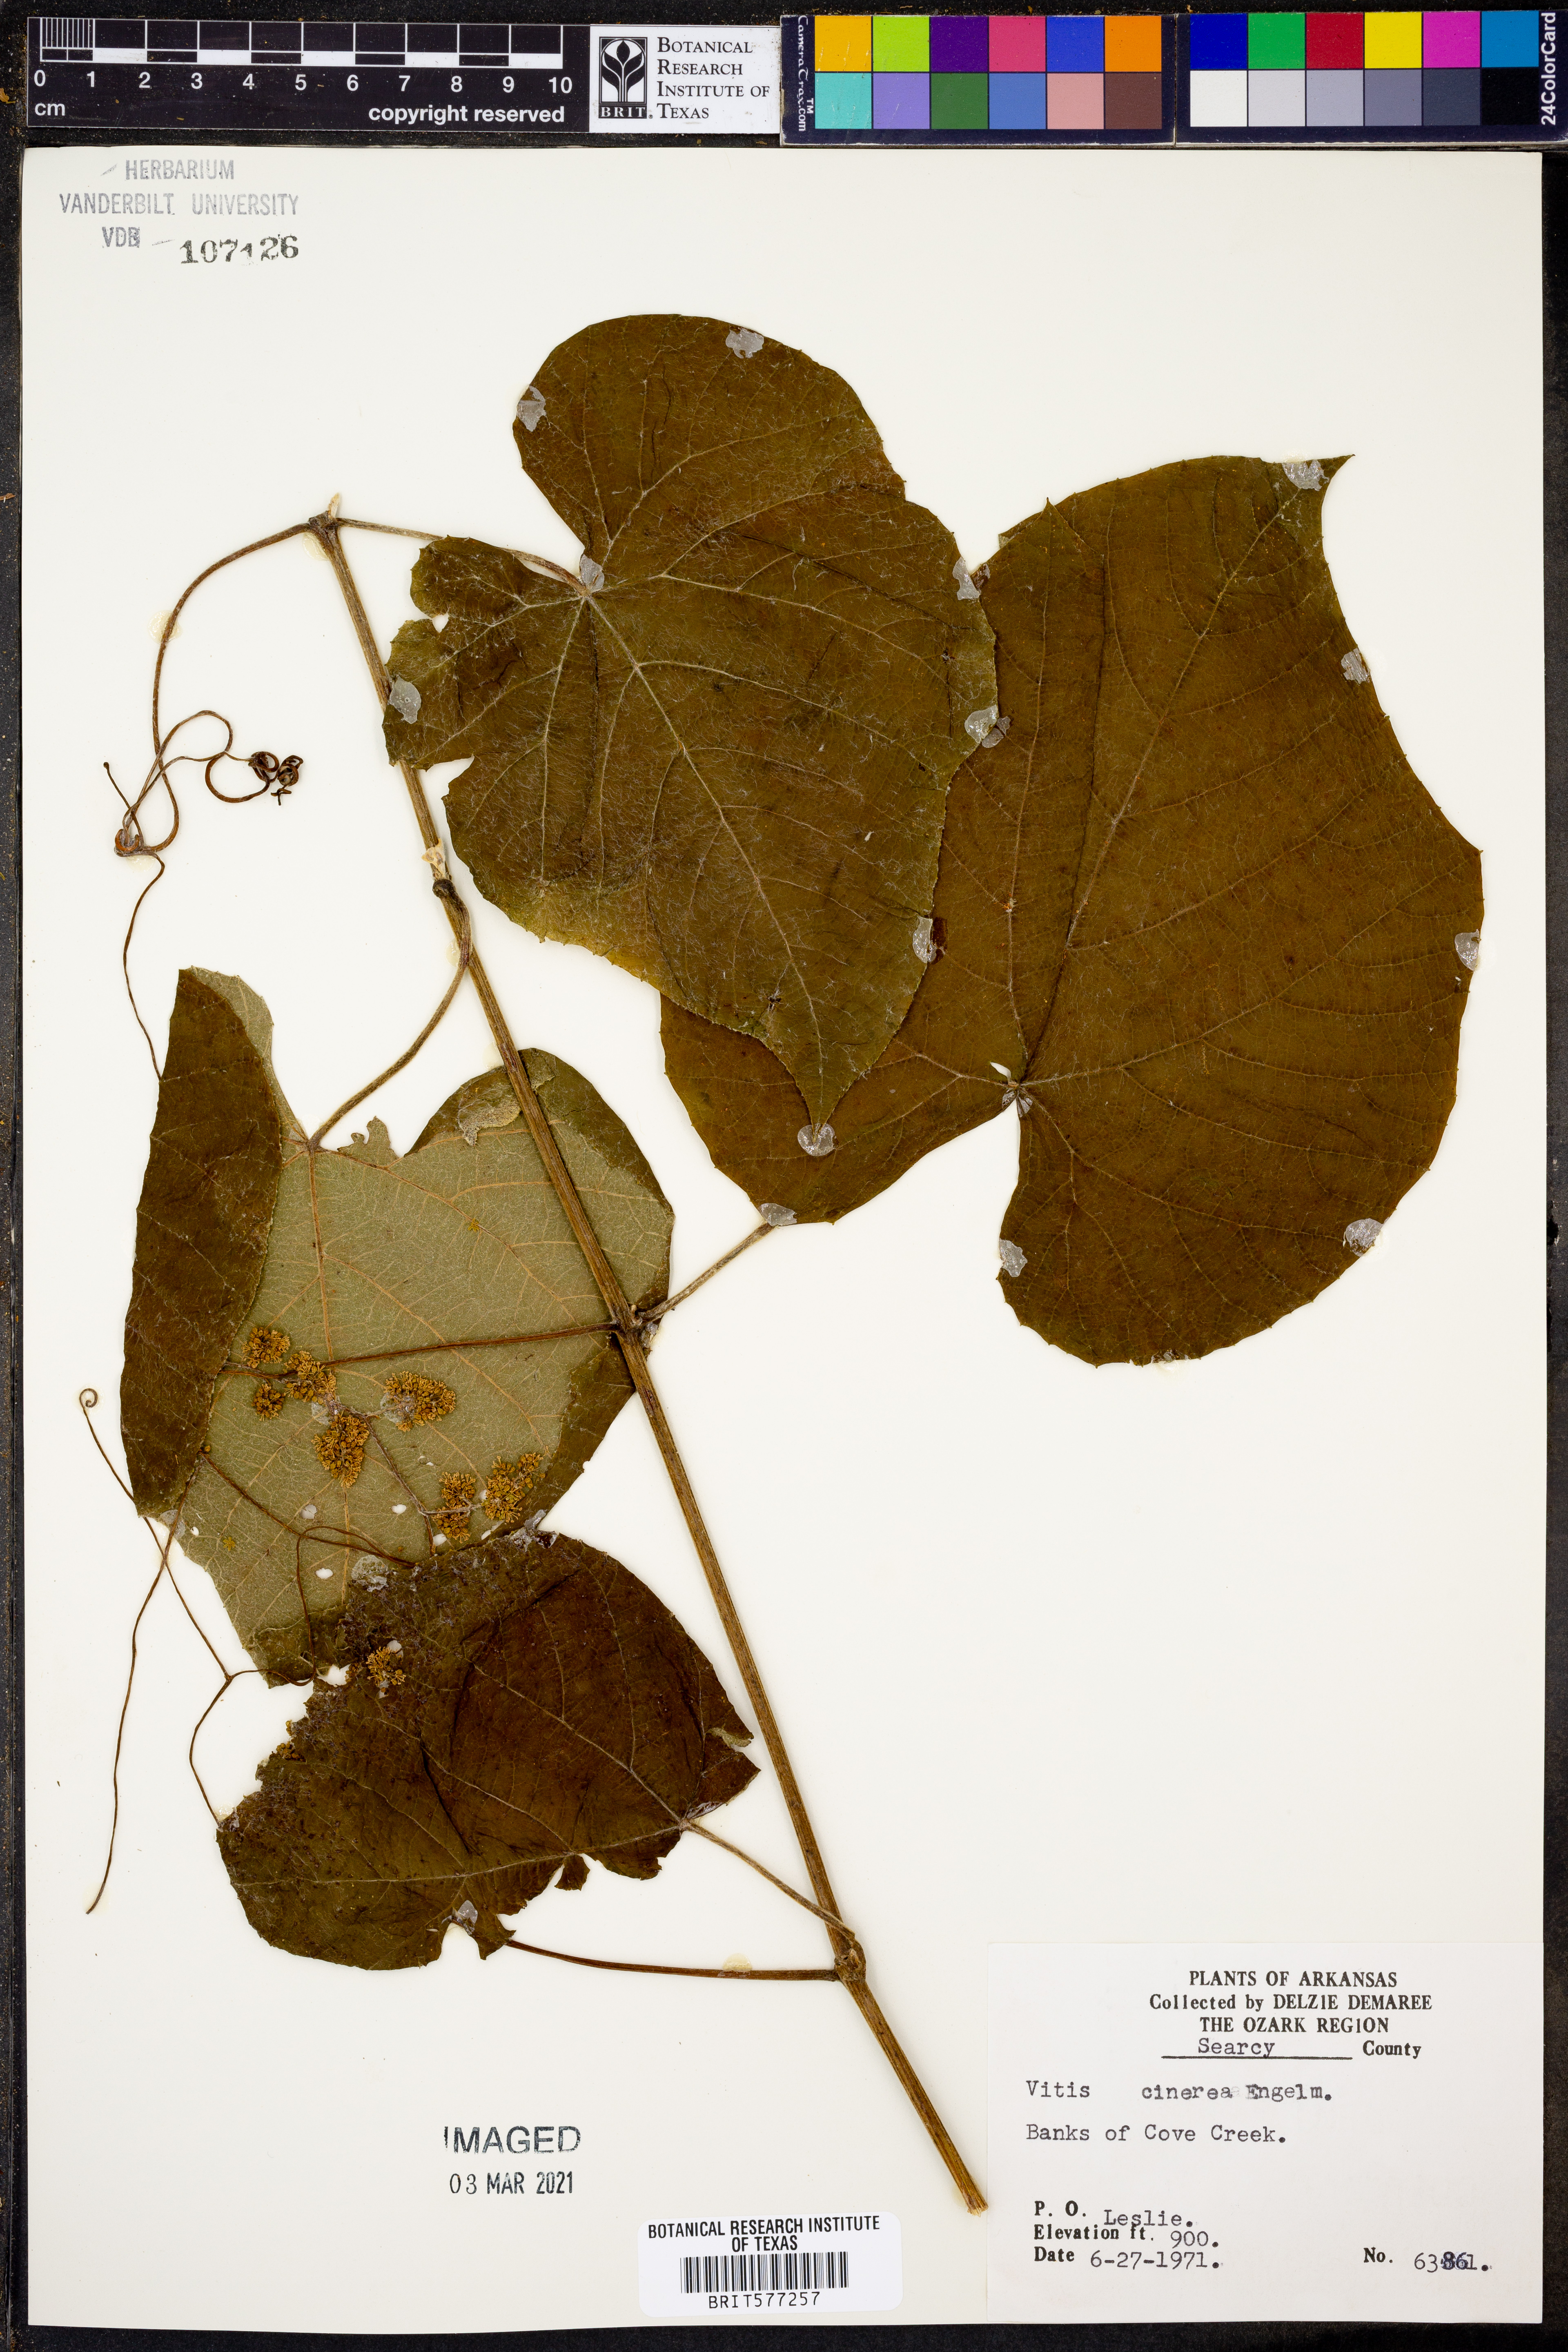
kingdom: Plantae
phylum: Tracheophyta
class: Magnoliopsida
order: Vitales
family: Vitaceae
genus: Vitis
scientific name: Vitis cinerea
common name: Ashy grape
